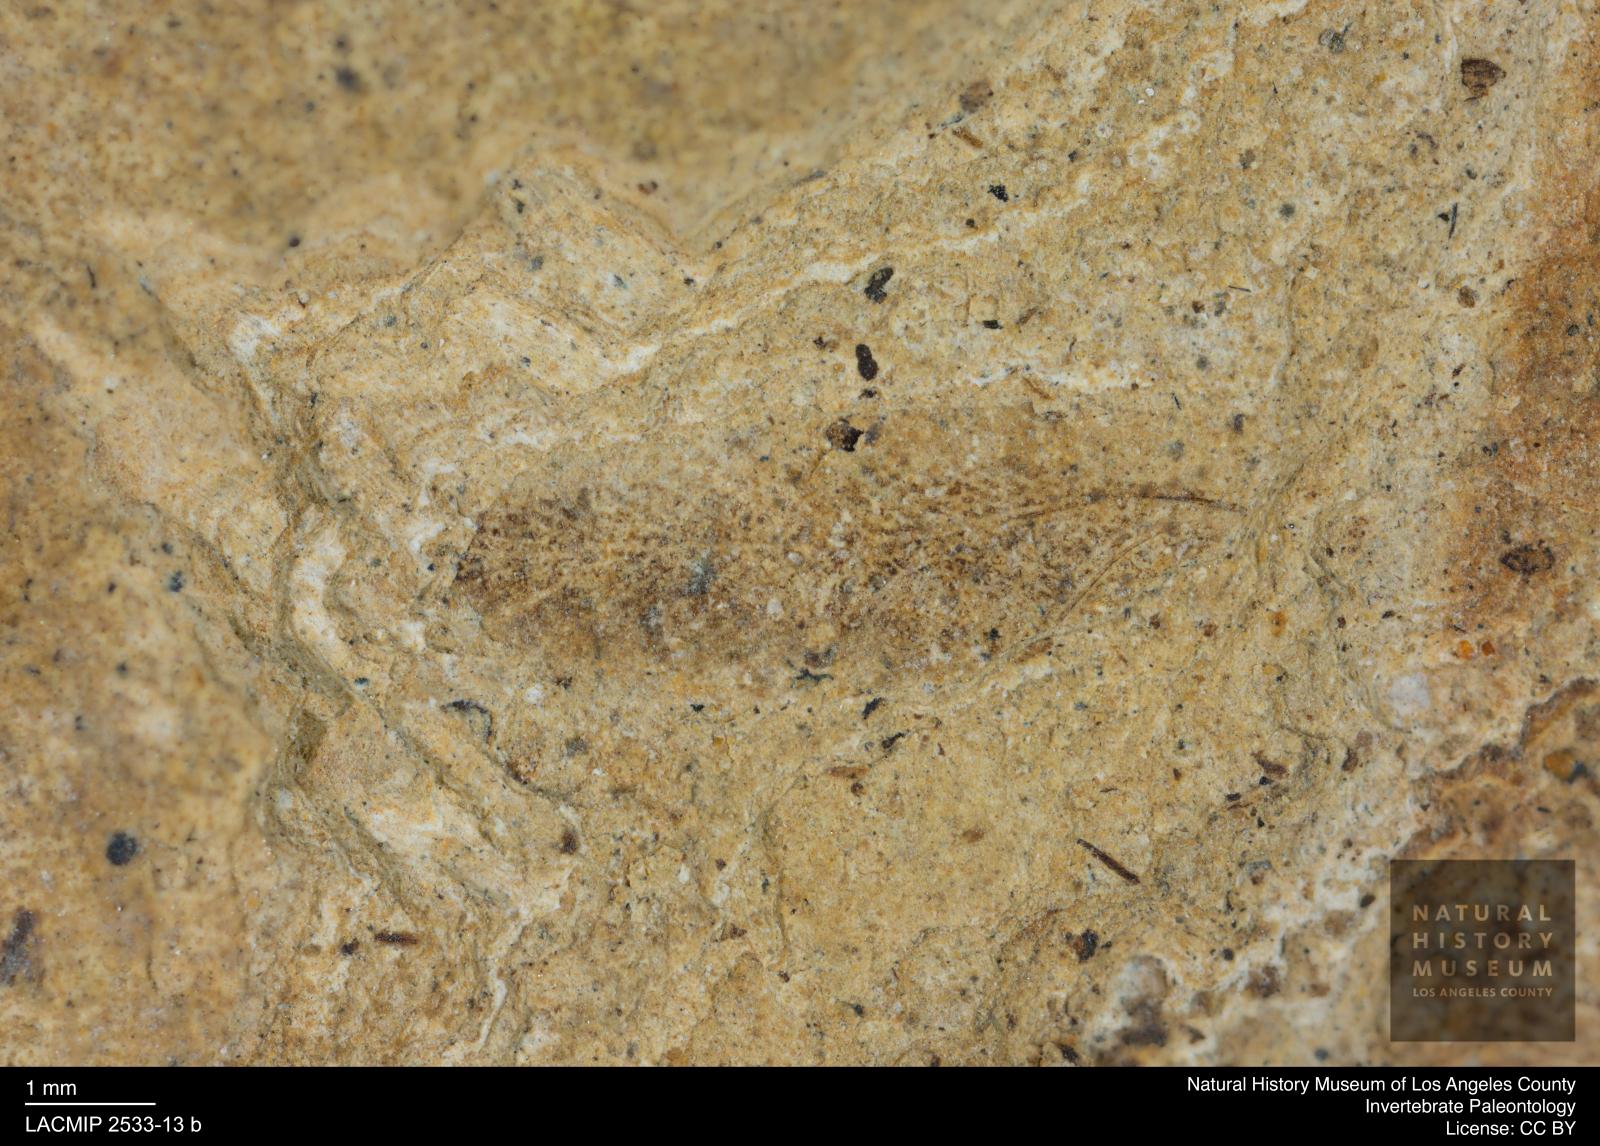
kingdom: Animalia
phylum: Arthropoda
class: Insecta
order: Blattodea
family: Ectobiidae
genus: Ectobius
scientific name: Ectobius glabellus
